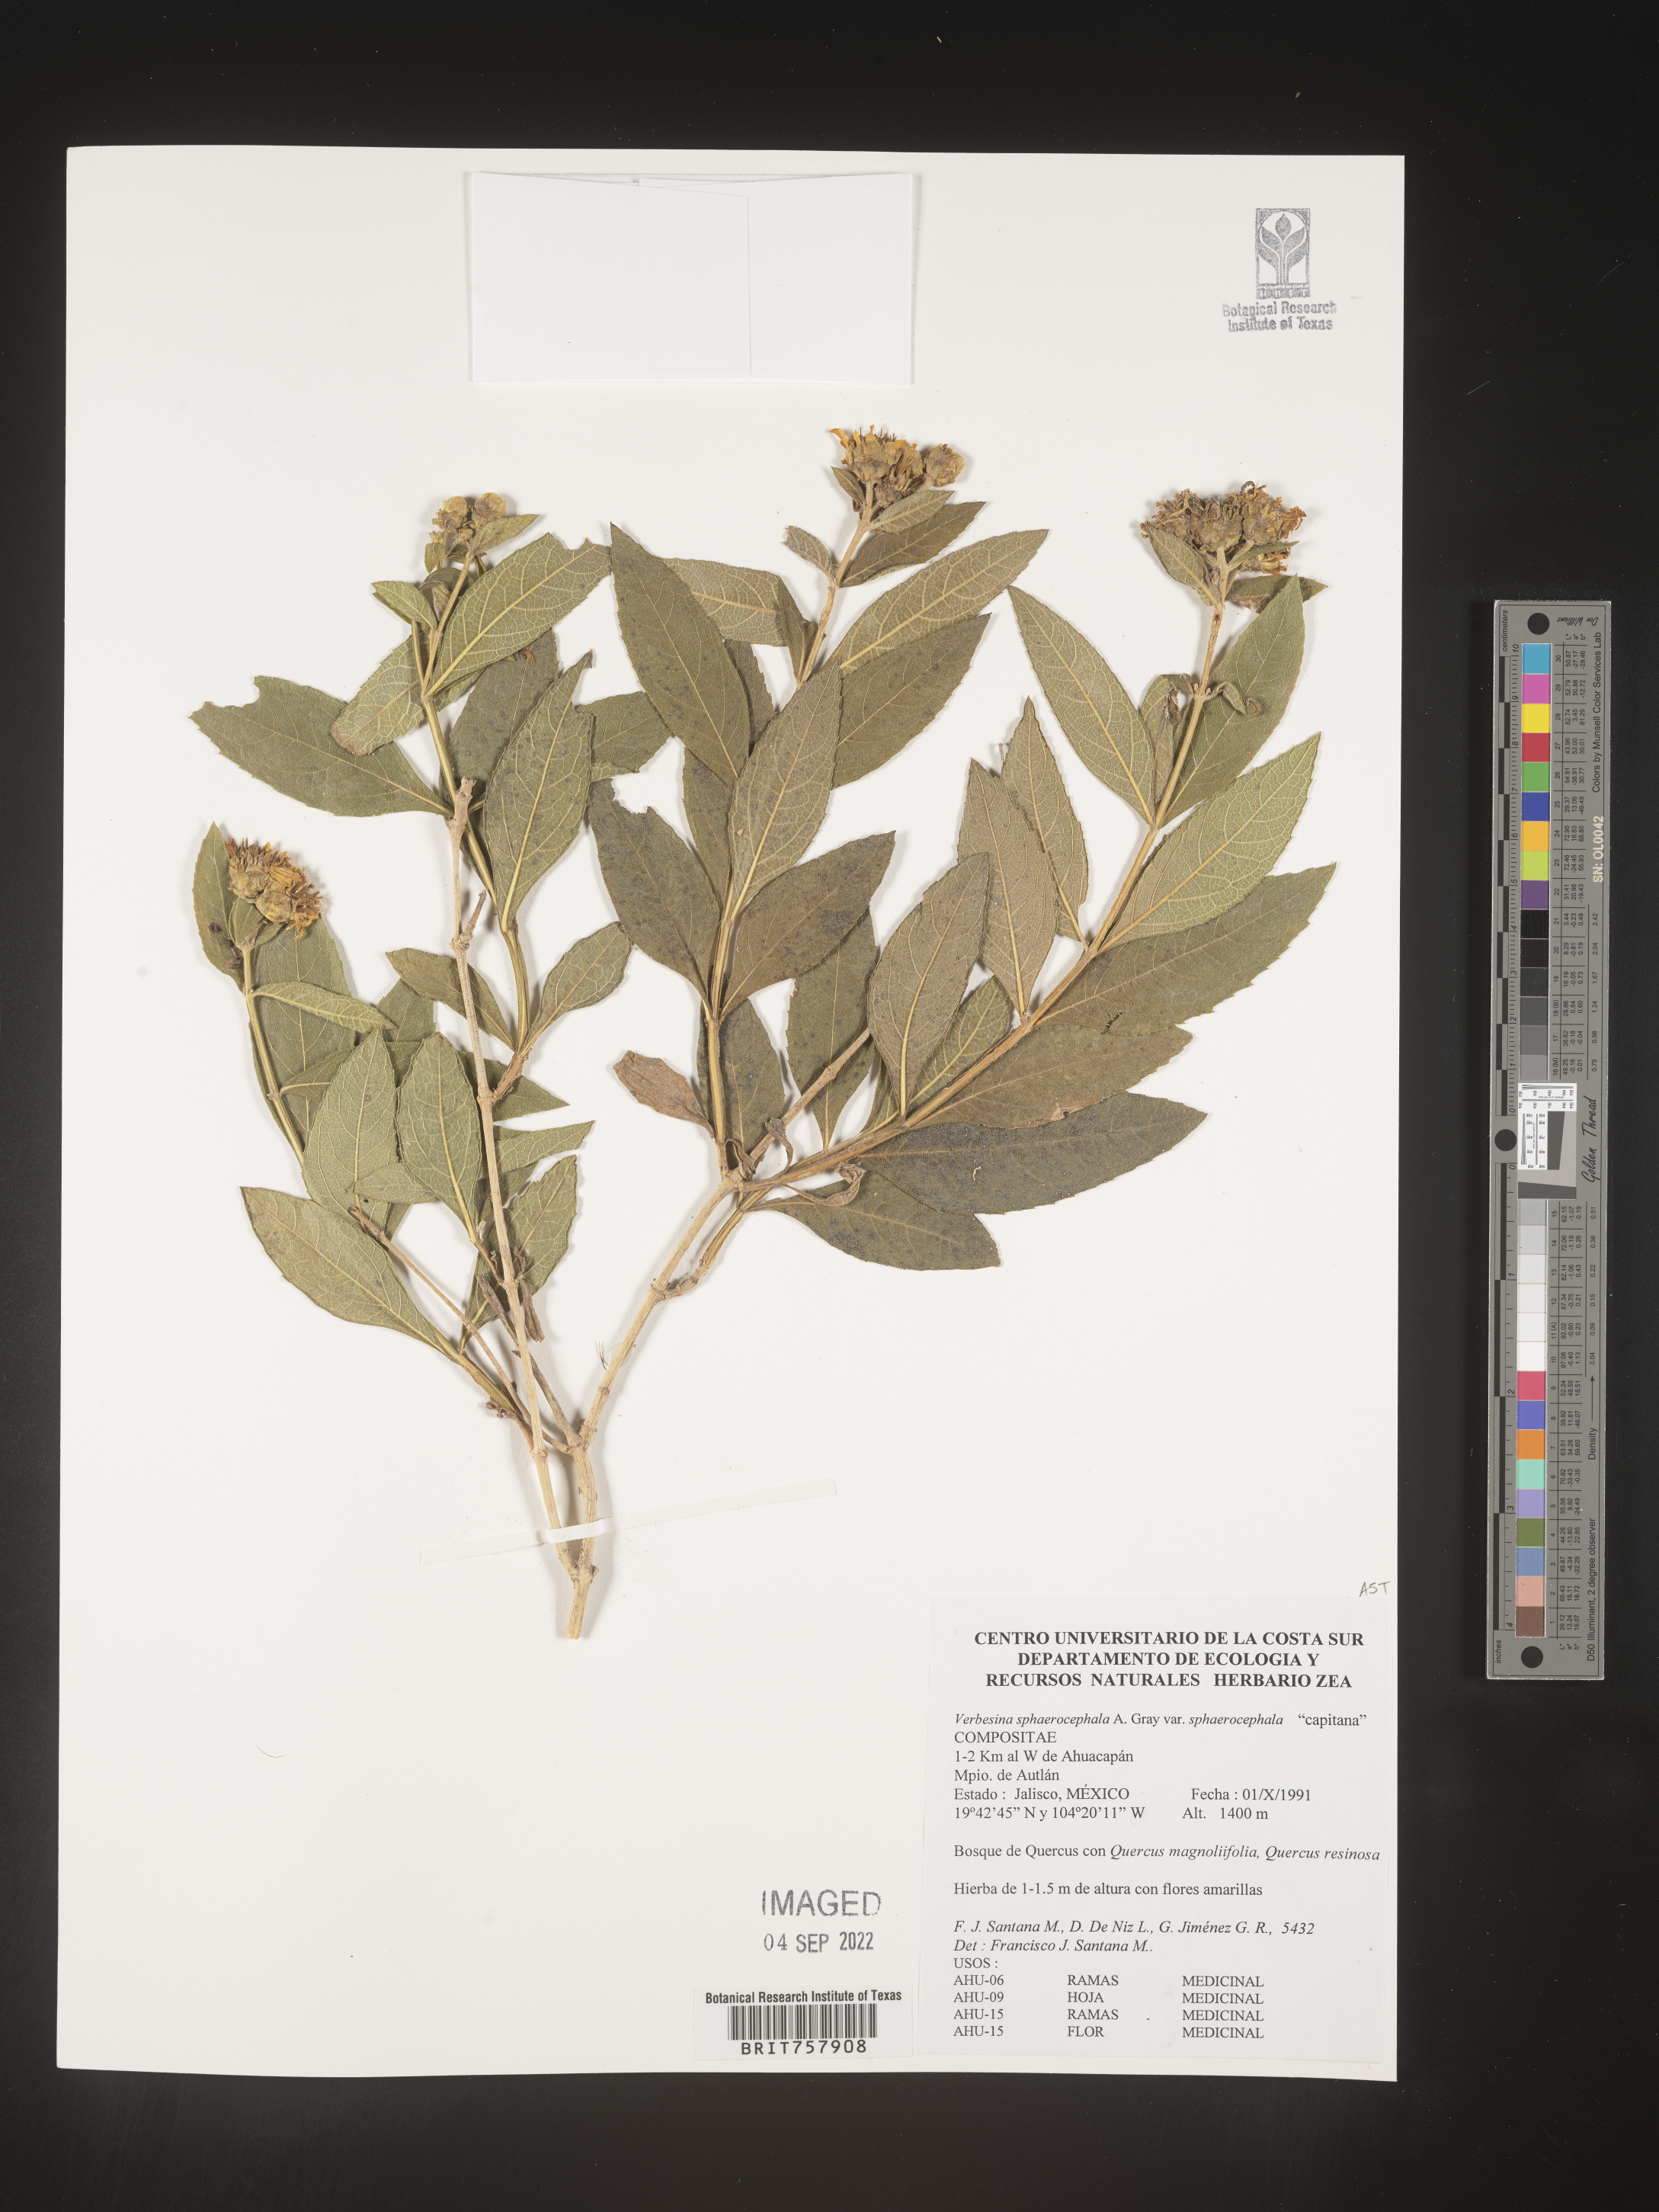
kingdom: Plantae
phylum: Tracheophyta
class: Magnoliopsida
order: Asterales
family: Asteraceae
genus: Verbesina
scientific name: Verbesina
